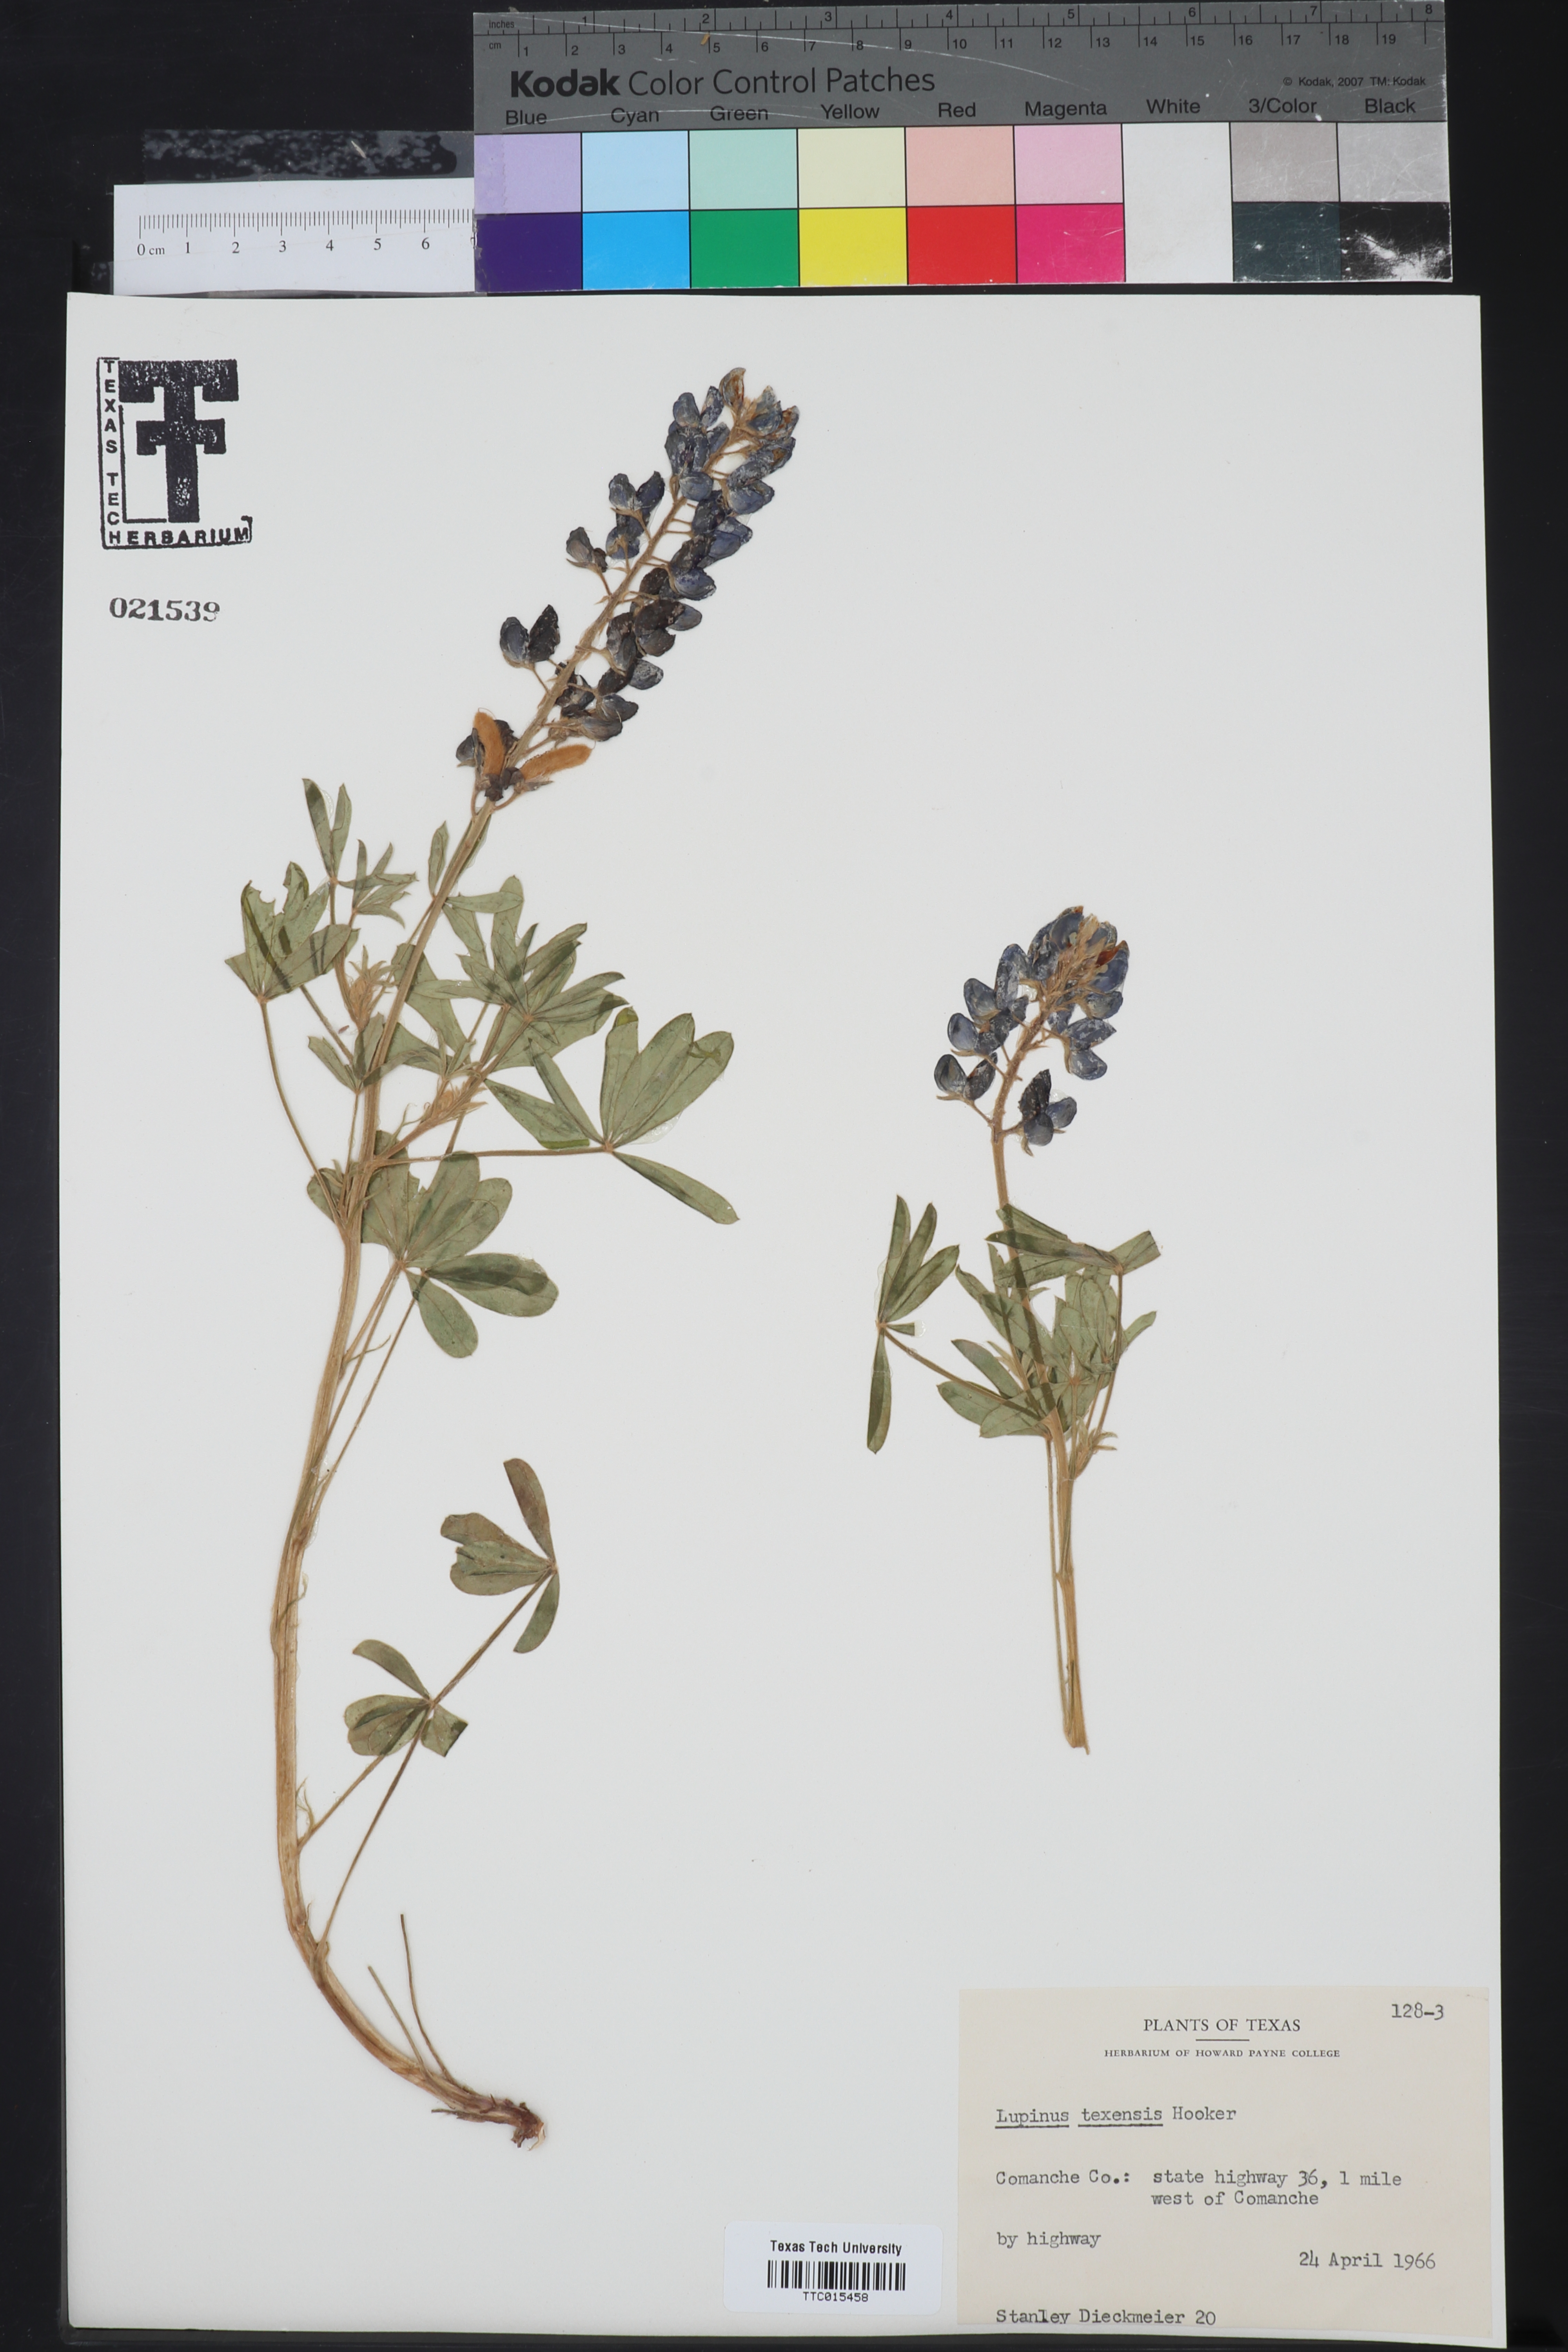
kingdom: Plantae
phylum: Tracheophyta
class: Magnoliopsida
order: Fabales
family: Fabaceae
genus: Lupinus
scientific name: Lupinus texensis
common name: Texas bluebonnet
